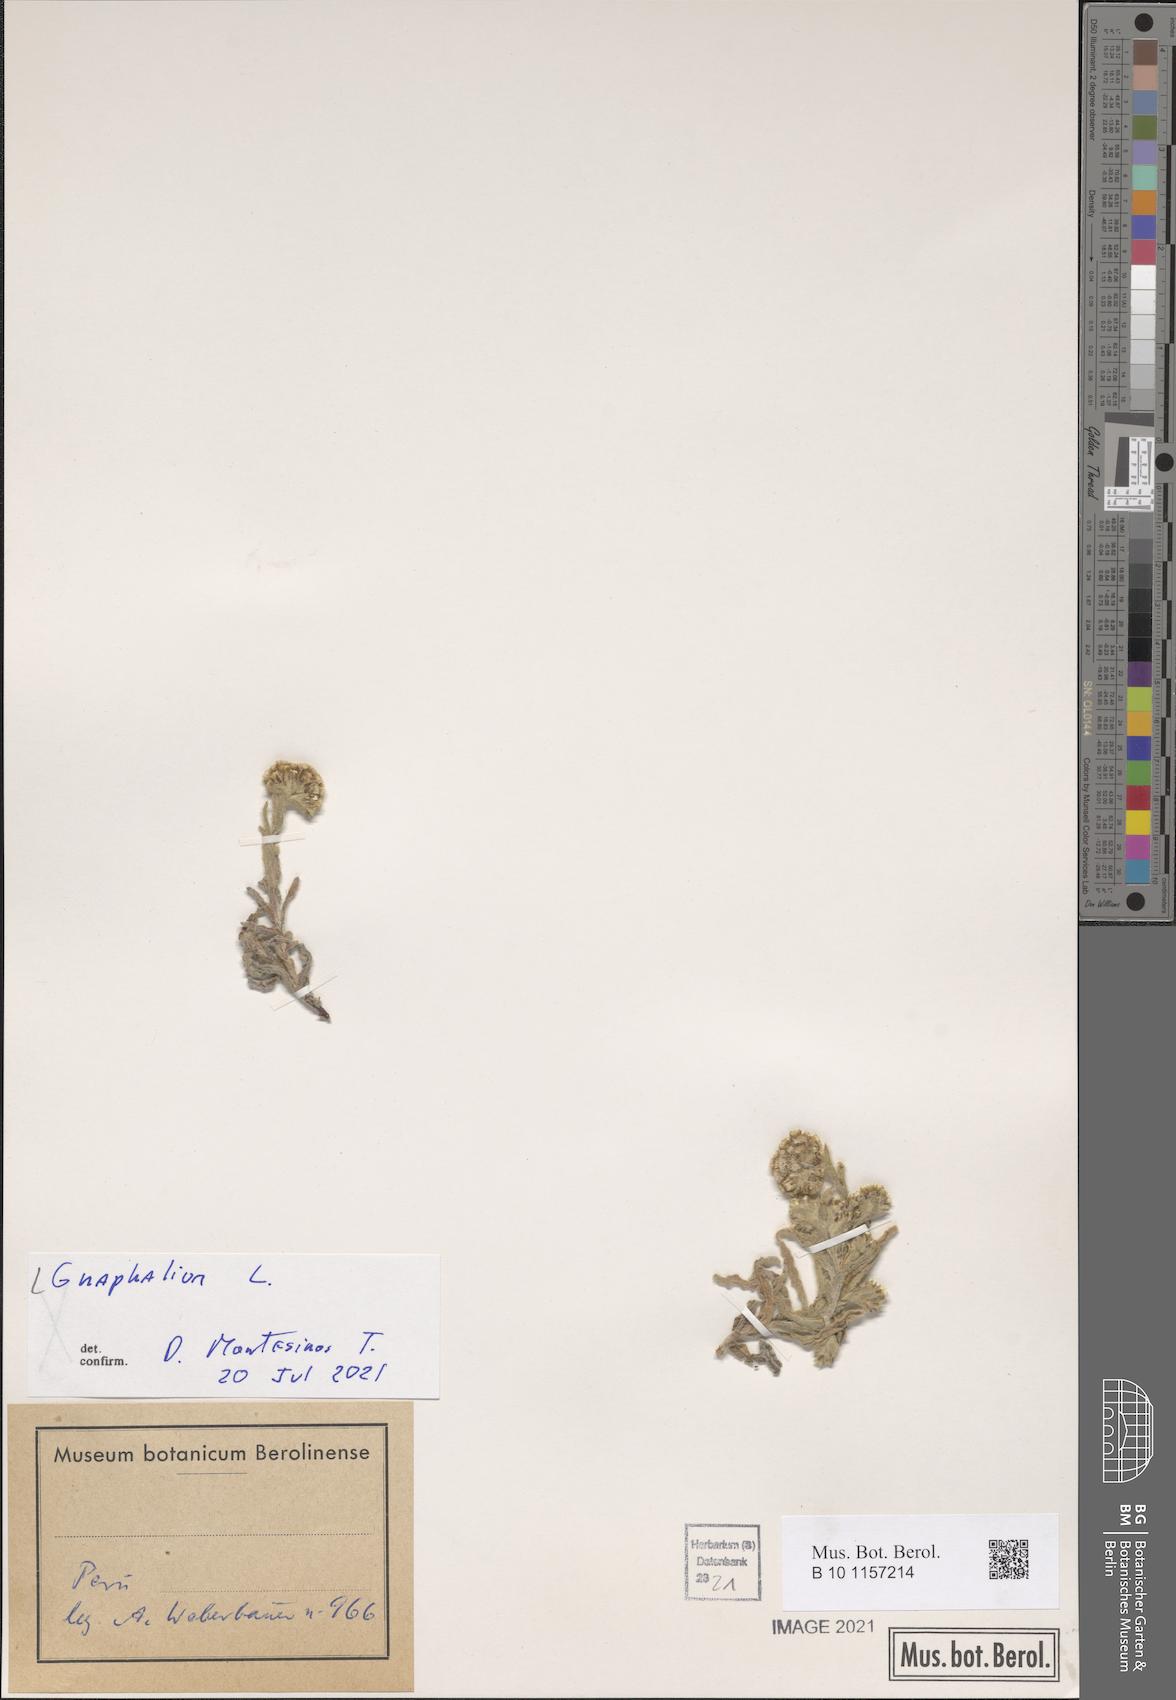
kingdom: Plantae
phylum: Tracheophyta
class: Magnoliopsida
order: Asterales
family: Asteraceae
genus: Gnaphalium
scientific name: Gnaphalium
